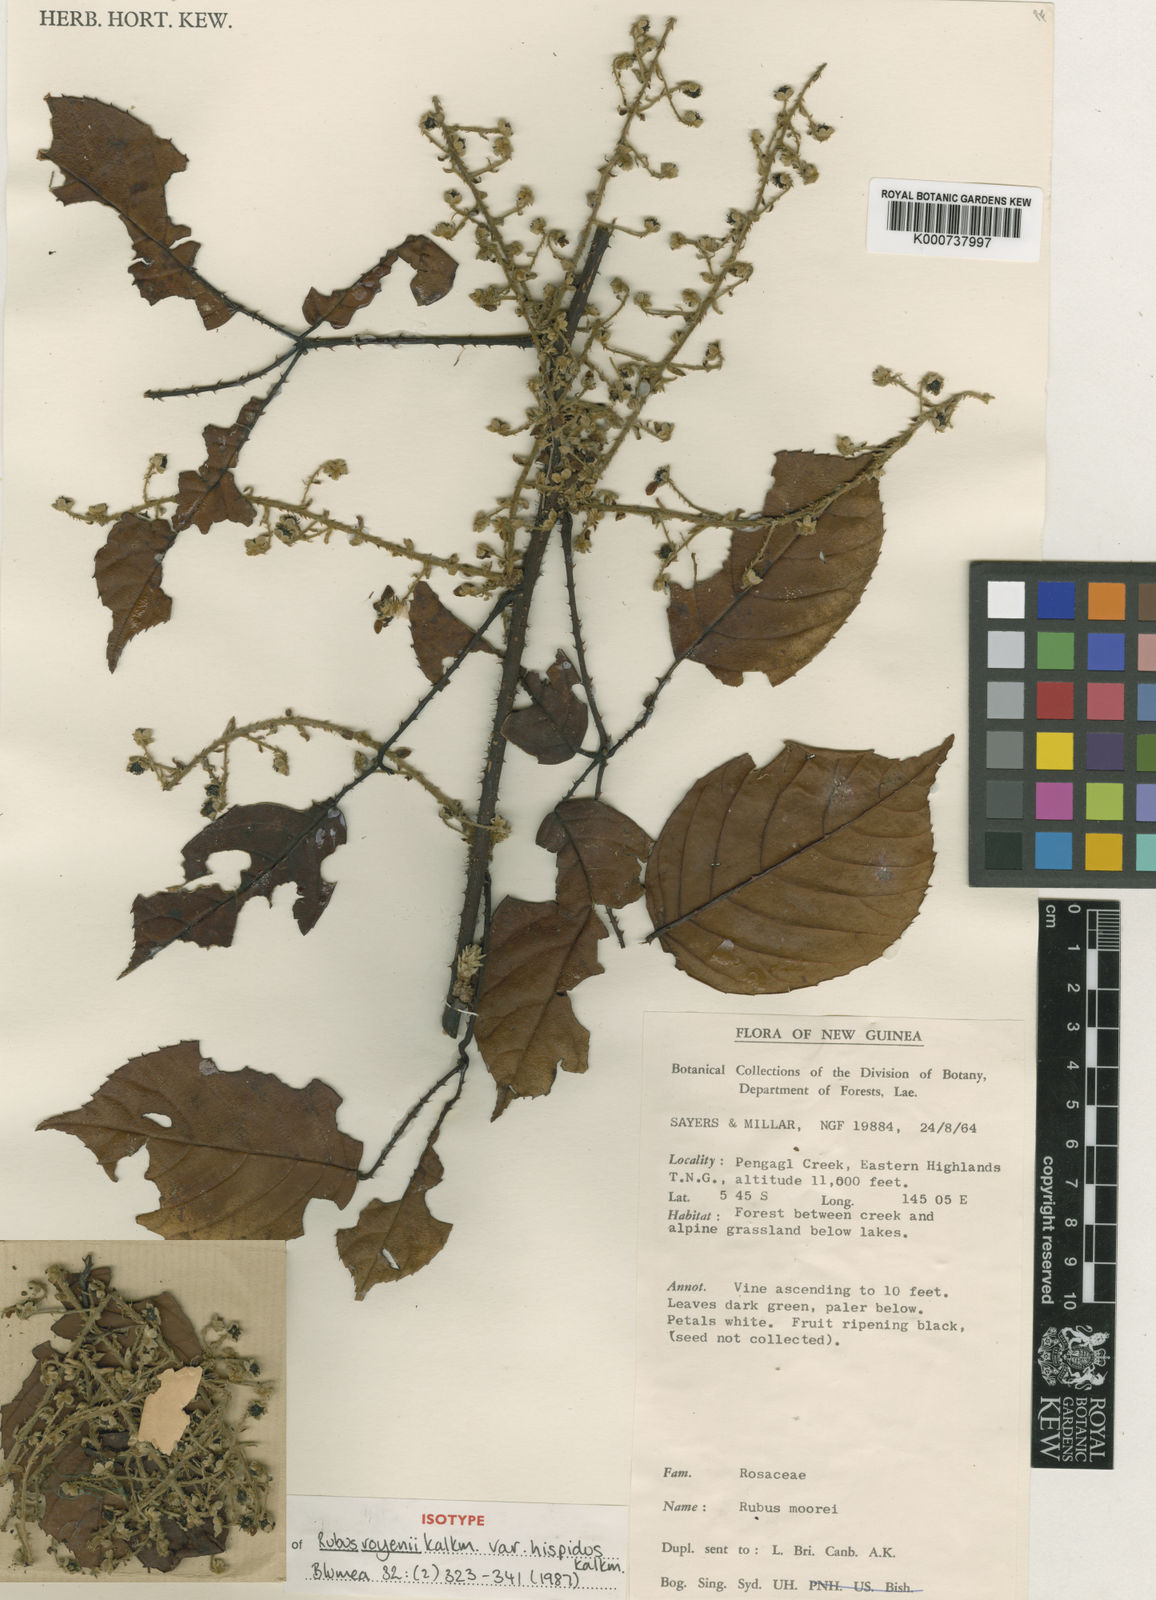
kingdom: Plantae
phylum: Tracheophyta
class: Magnoliopsida
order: Rosales
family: Rosaceae
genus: Rubus
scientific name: Rubus royenii
